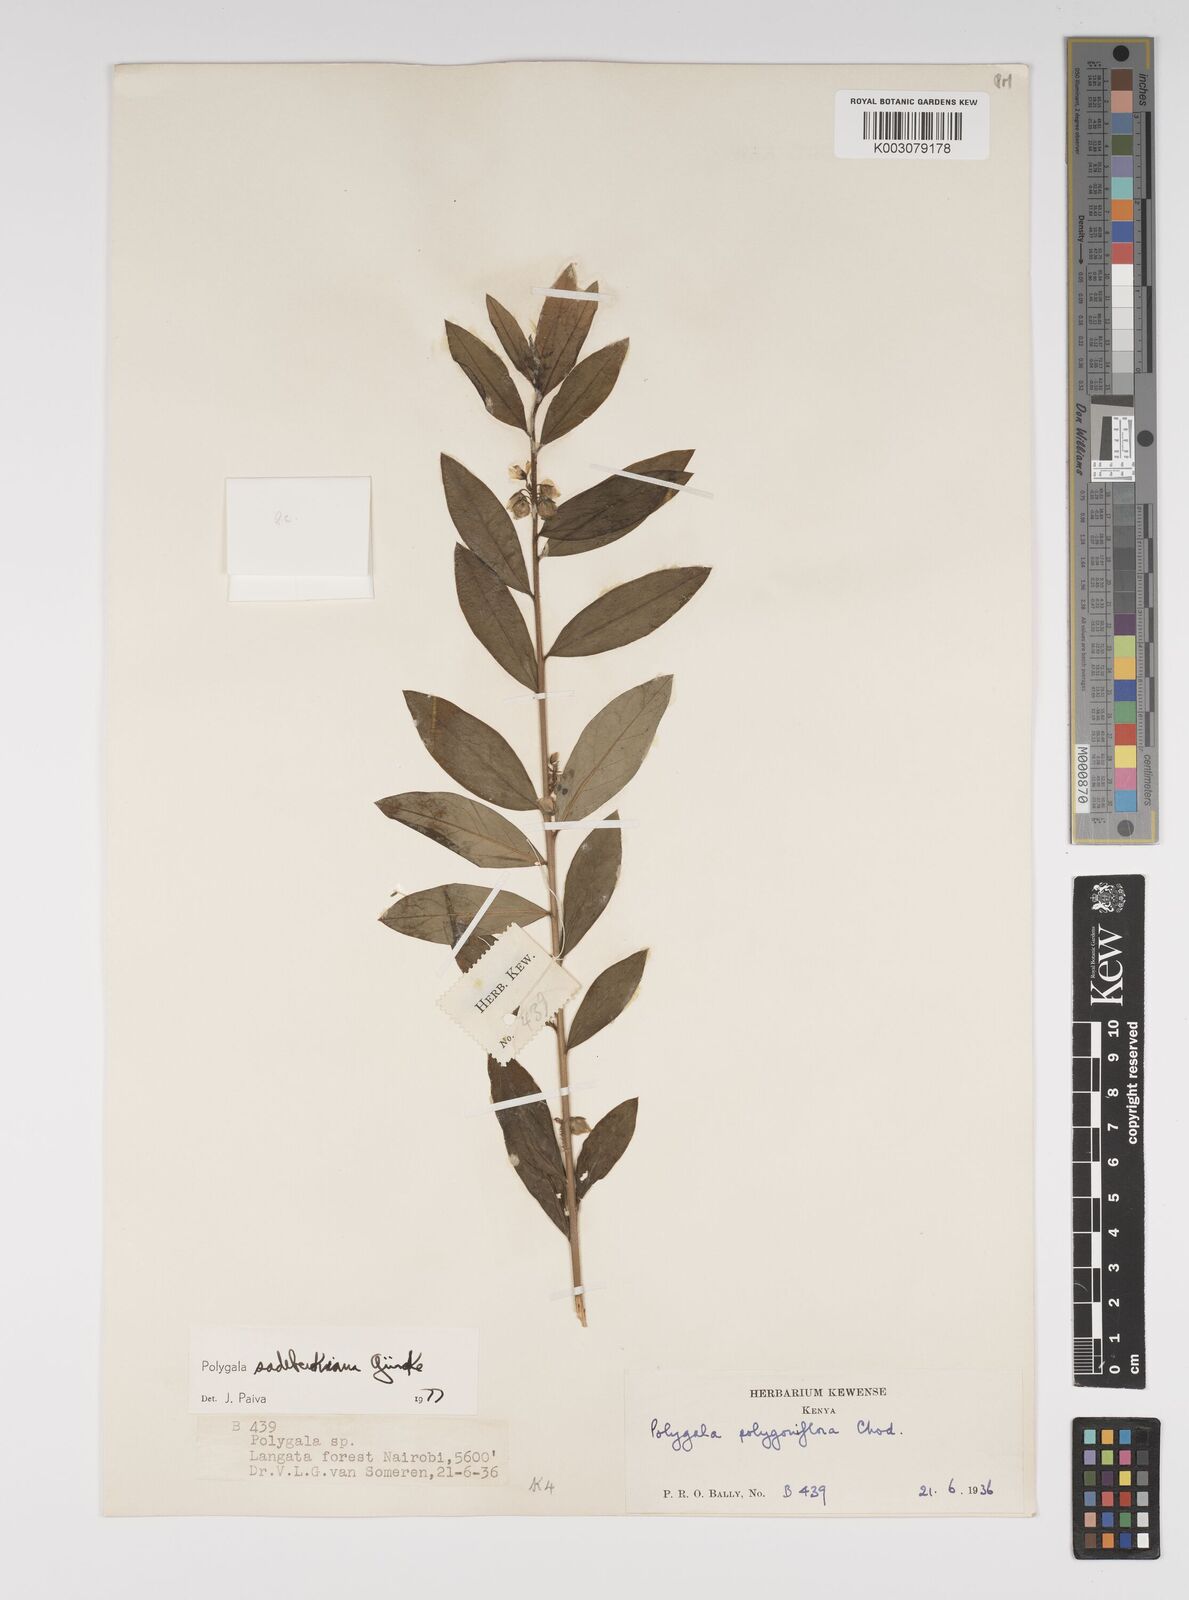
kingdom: Plantae
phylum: Tracheophyta
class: Magnoliopsida
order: Fabales
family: Polygalaceae
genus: Polygala
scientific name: Polygala sadebeckiana
